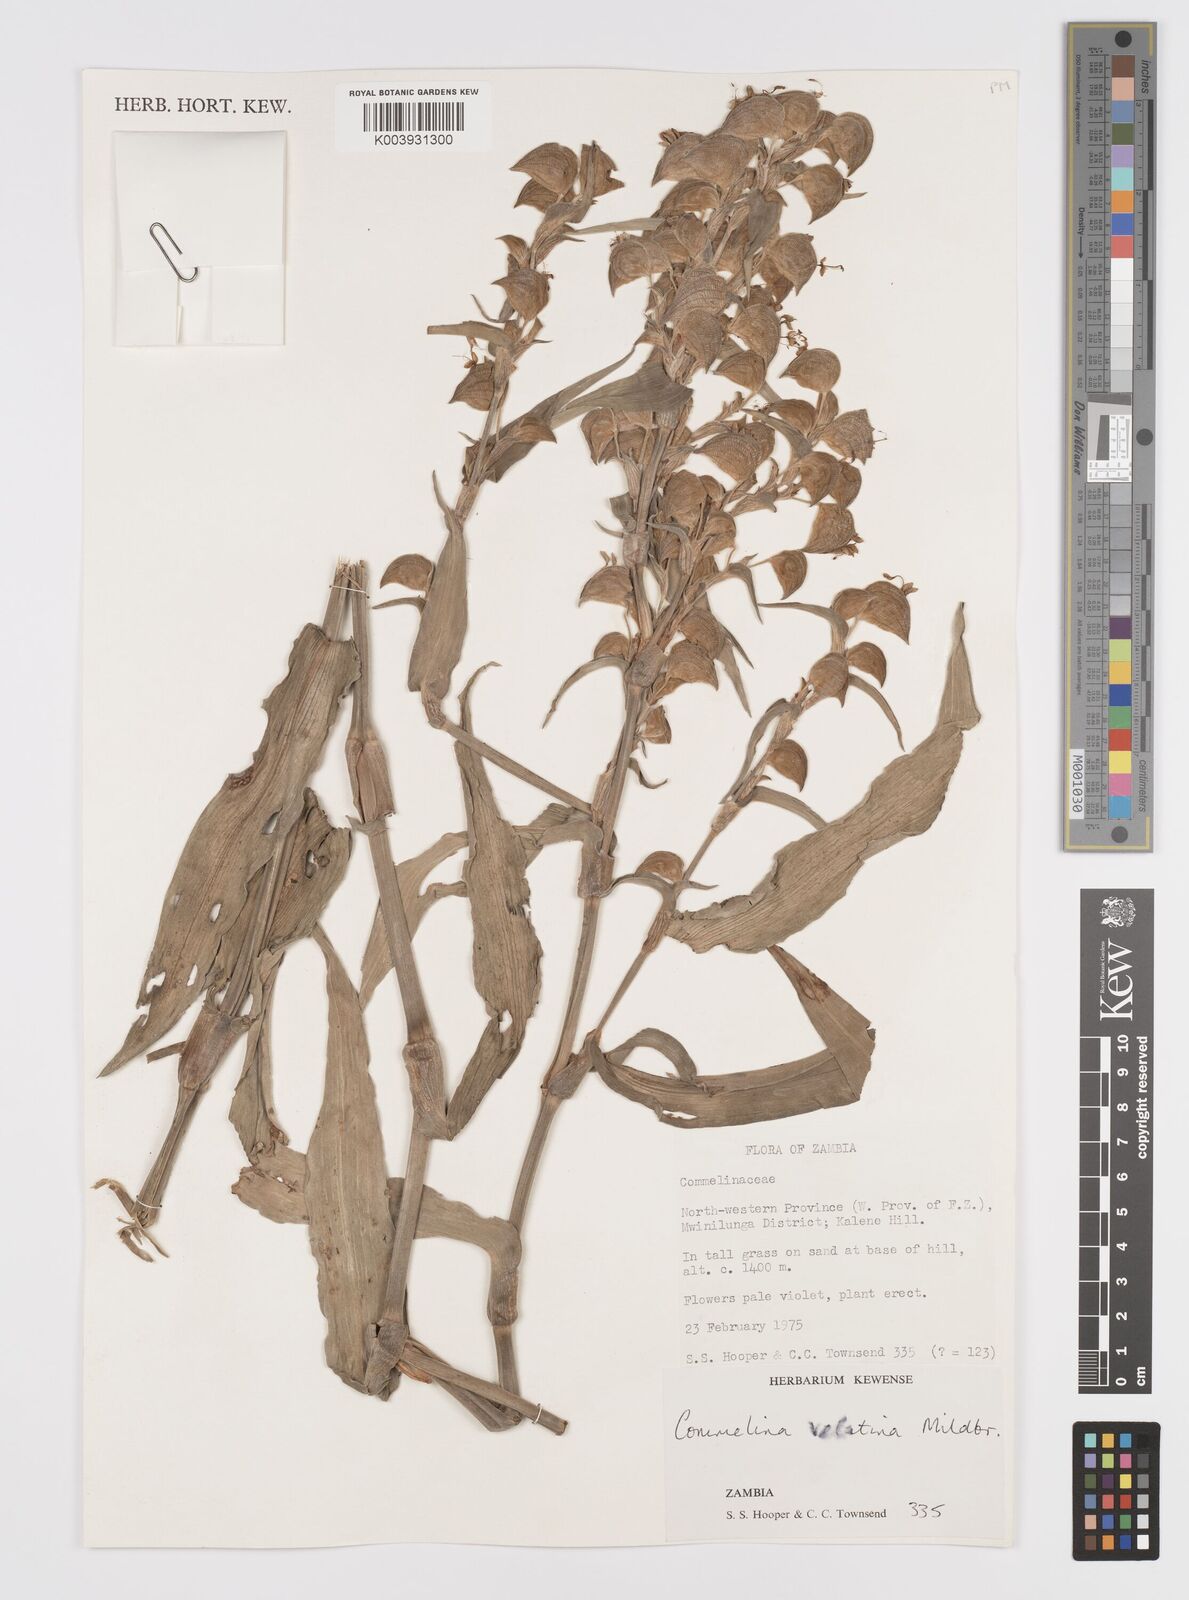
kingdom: Plantae
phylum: Tracheophyta
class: Liliopsida
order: Commelinales
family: Commelinaceae
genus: Commelina
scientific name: Commelina velutina
